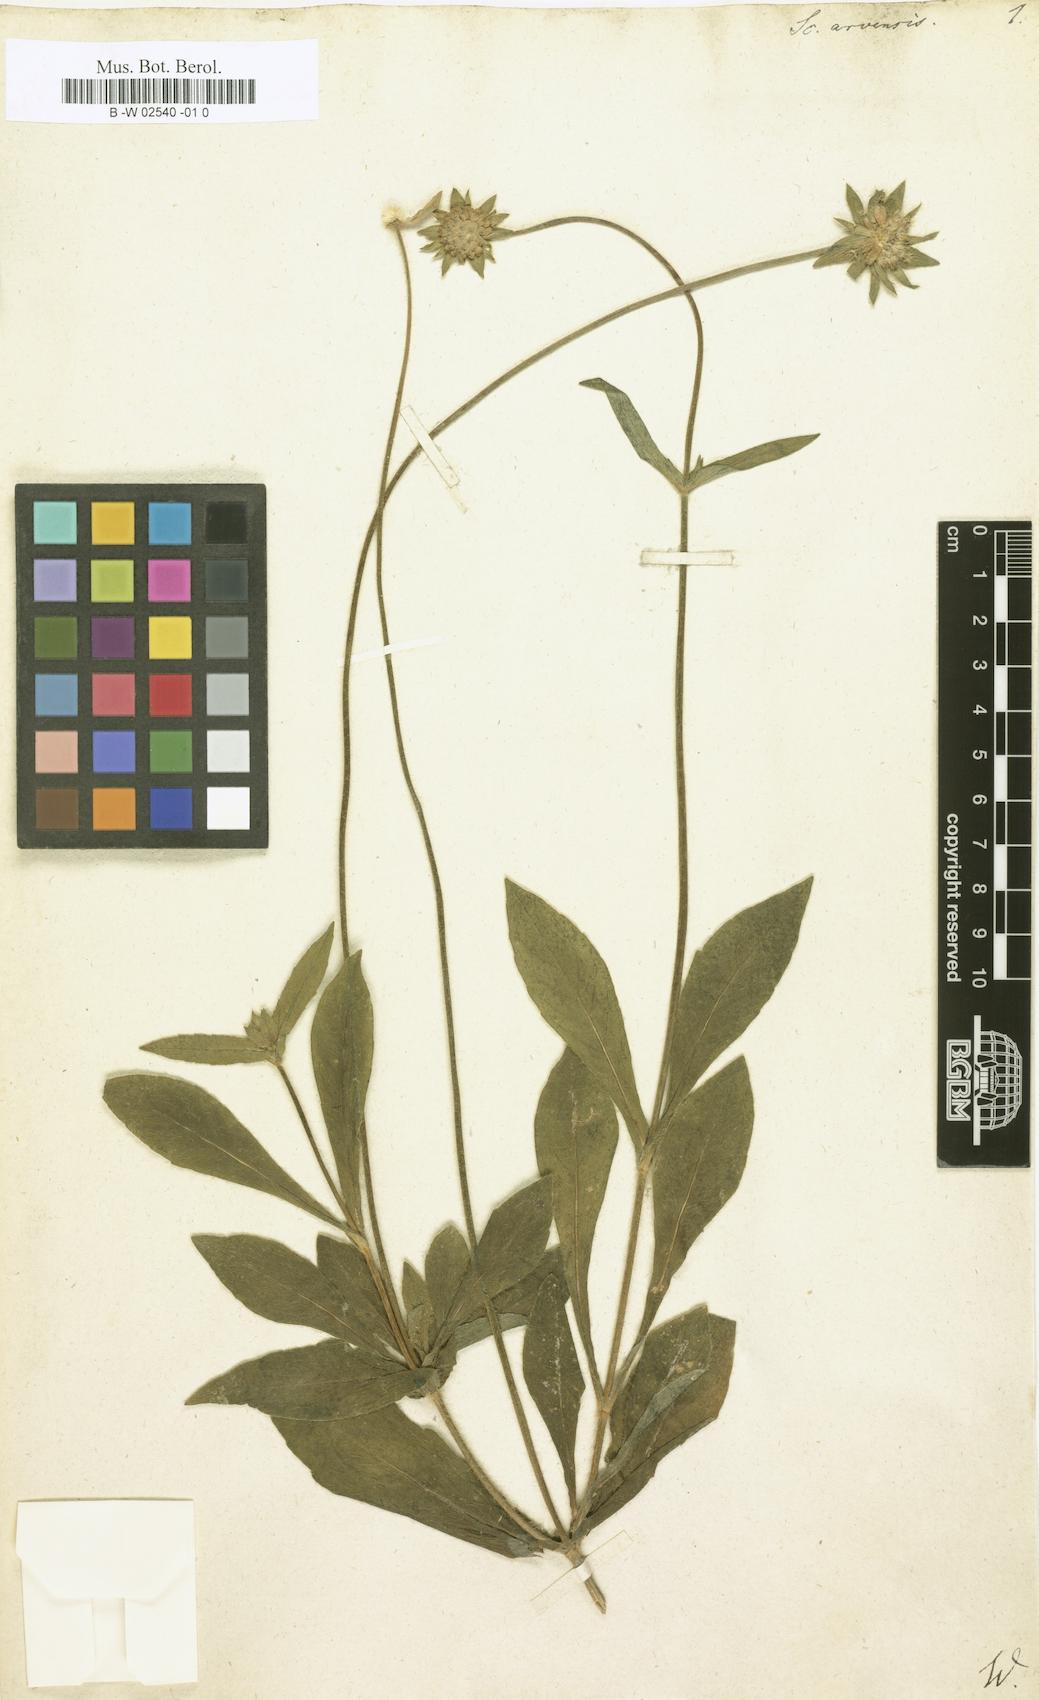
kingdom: Plantae
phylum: Tracheophyta
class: Magnoliopsida
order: Dipsacales
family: Caprifoliaceae
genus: Knautia
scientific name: Knautia arvensis
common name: Field scabiosa
